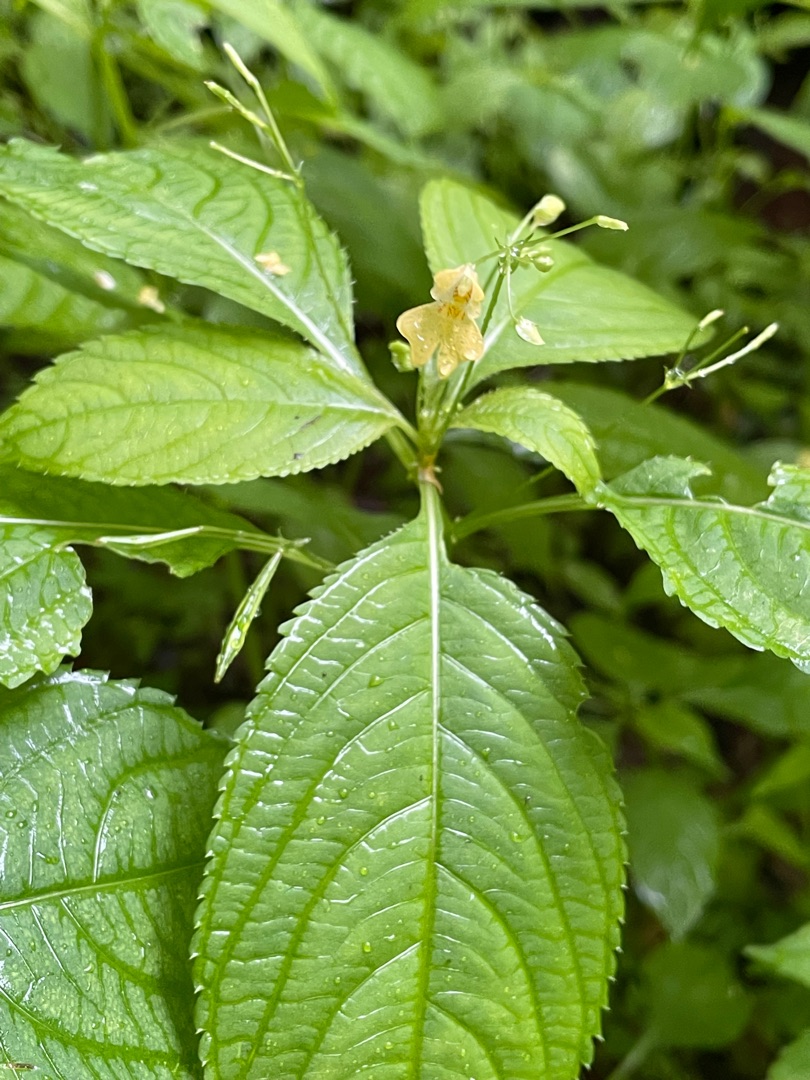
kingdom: Plantae
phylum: Tracheophyta
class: Magnoliopsida
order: Ericales
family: Balsaminaceae
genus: Impatiens
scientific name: Impatiens parviflora
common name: Småblomstret balsamin
